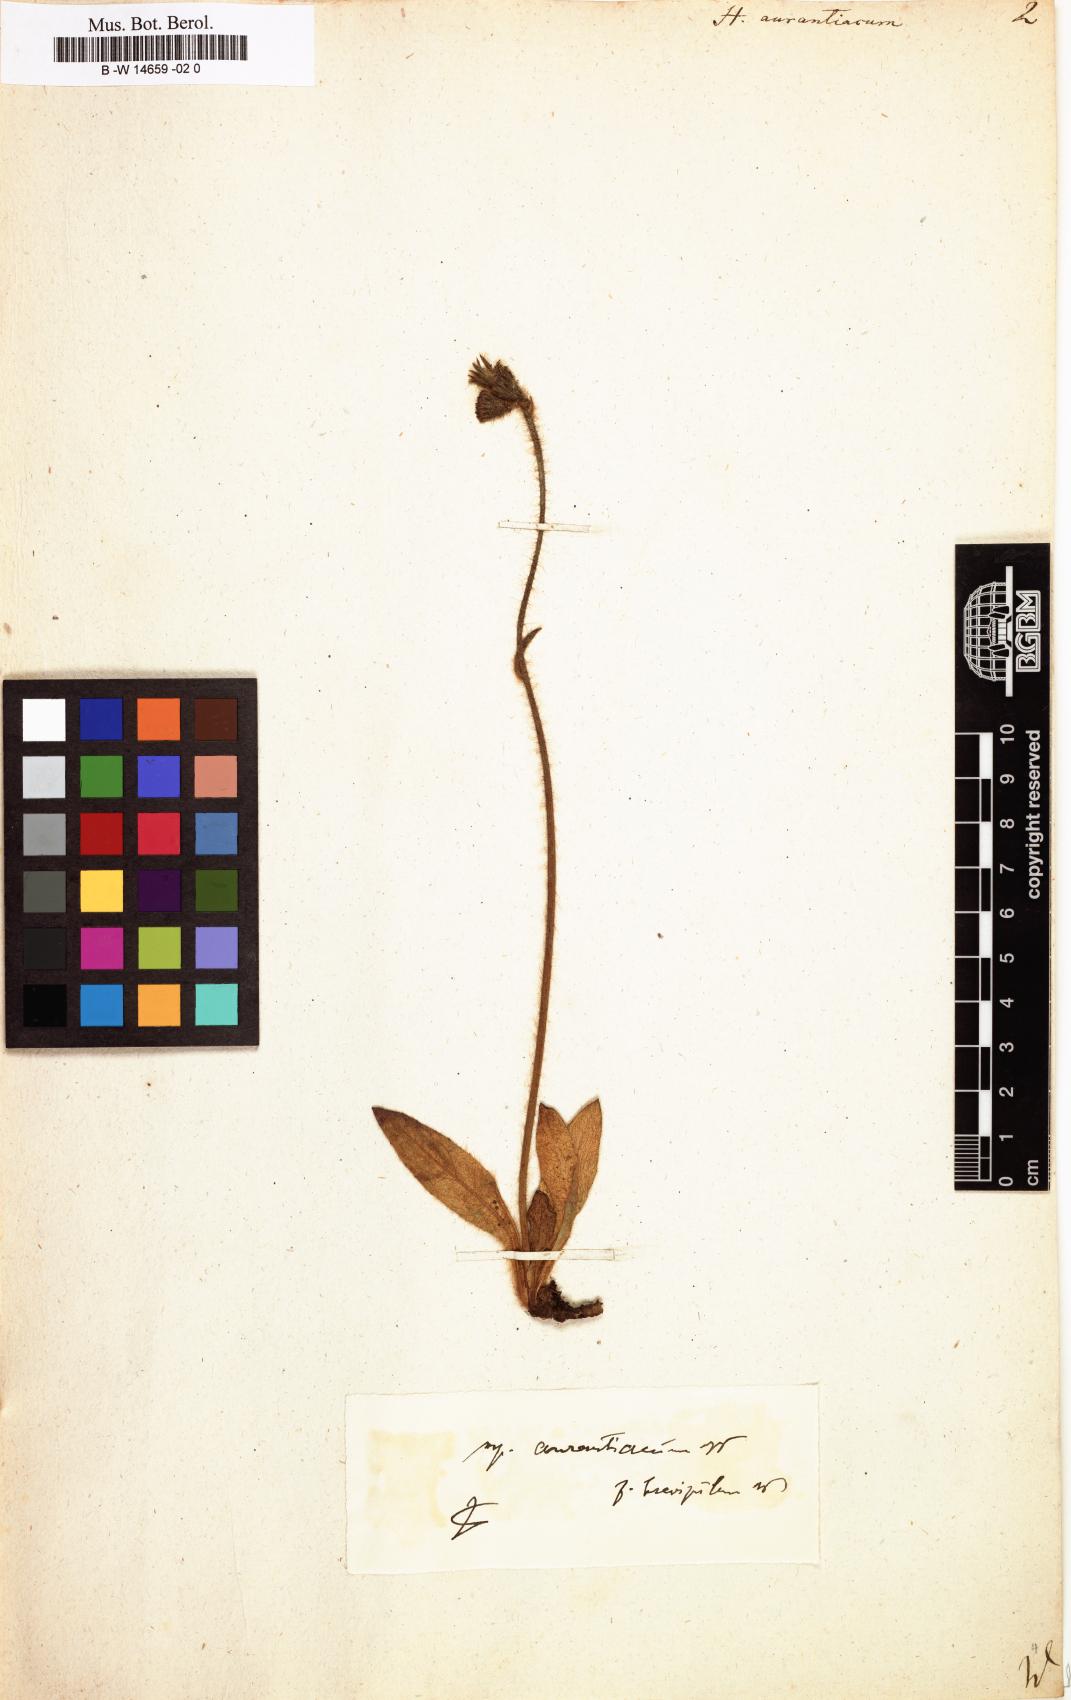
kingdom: Plantae
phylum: Tracheophyta
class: Magnoliopsida
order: Asterales
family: Asteraceae
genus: Pilosella
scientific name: Pilosella aurantiaca
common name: Fox-and-cubs
